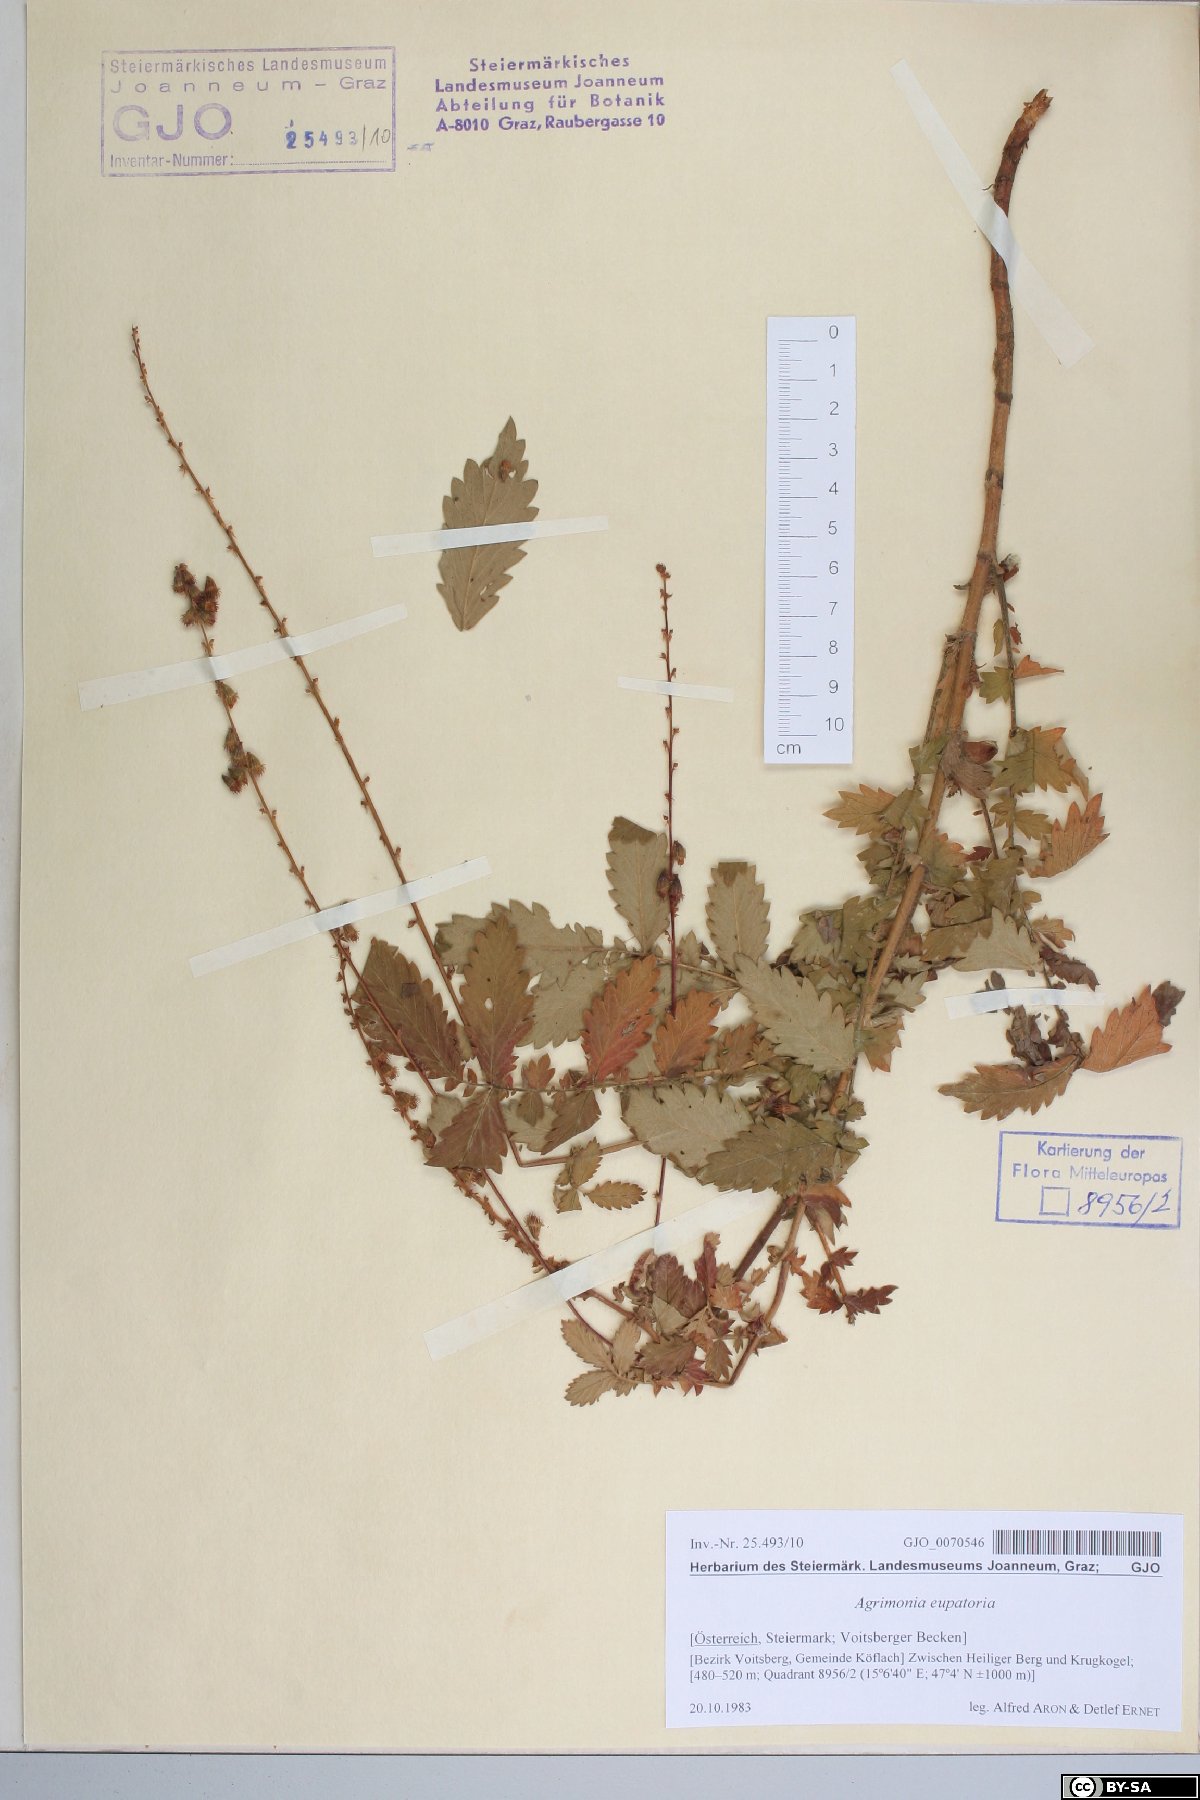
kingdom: Plantae
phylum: Tracheophyta
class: Magnoliopsida
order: Rosales
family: Rosaceae
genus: Agrimonia
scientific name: Agrimonia eupatoria
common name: Agrimony
